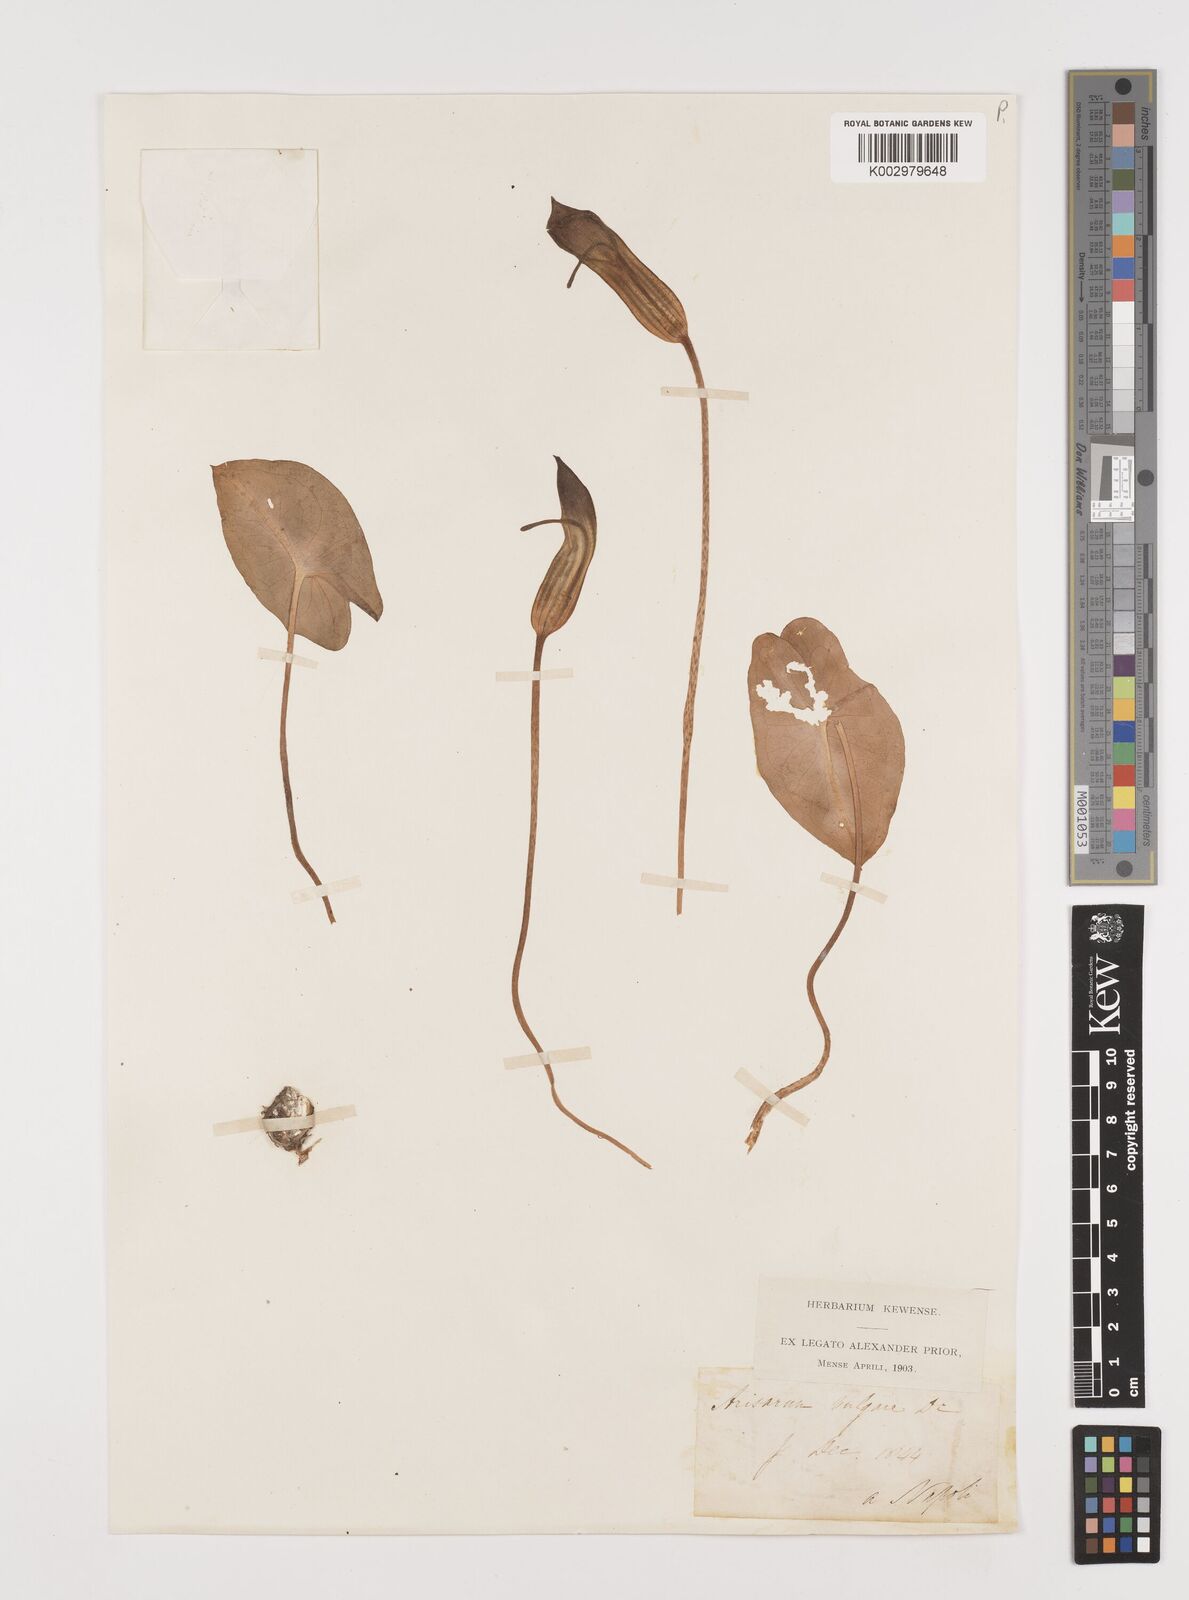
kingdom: Plantae
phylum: Tracheophyta
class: Liliopsida
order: Alismatales
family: Araceae
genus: Arisarum
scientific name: Arisarum vulgare
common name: Common arisarum
